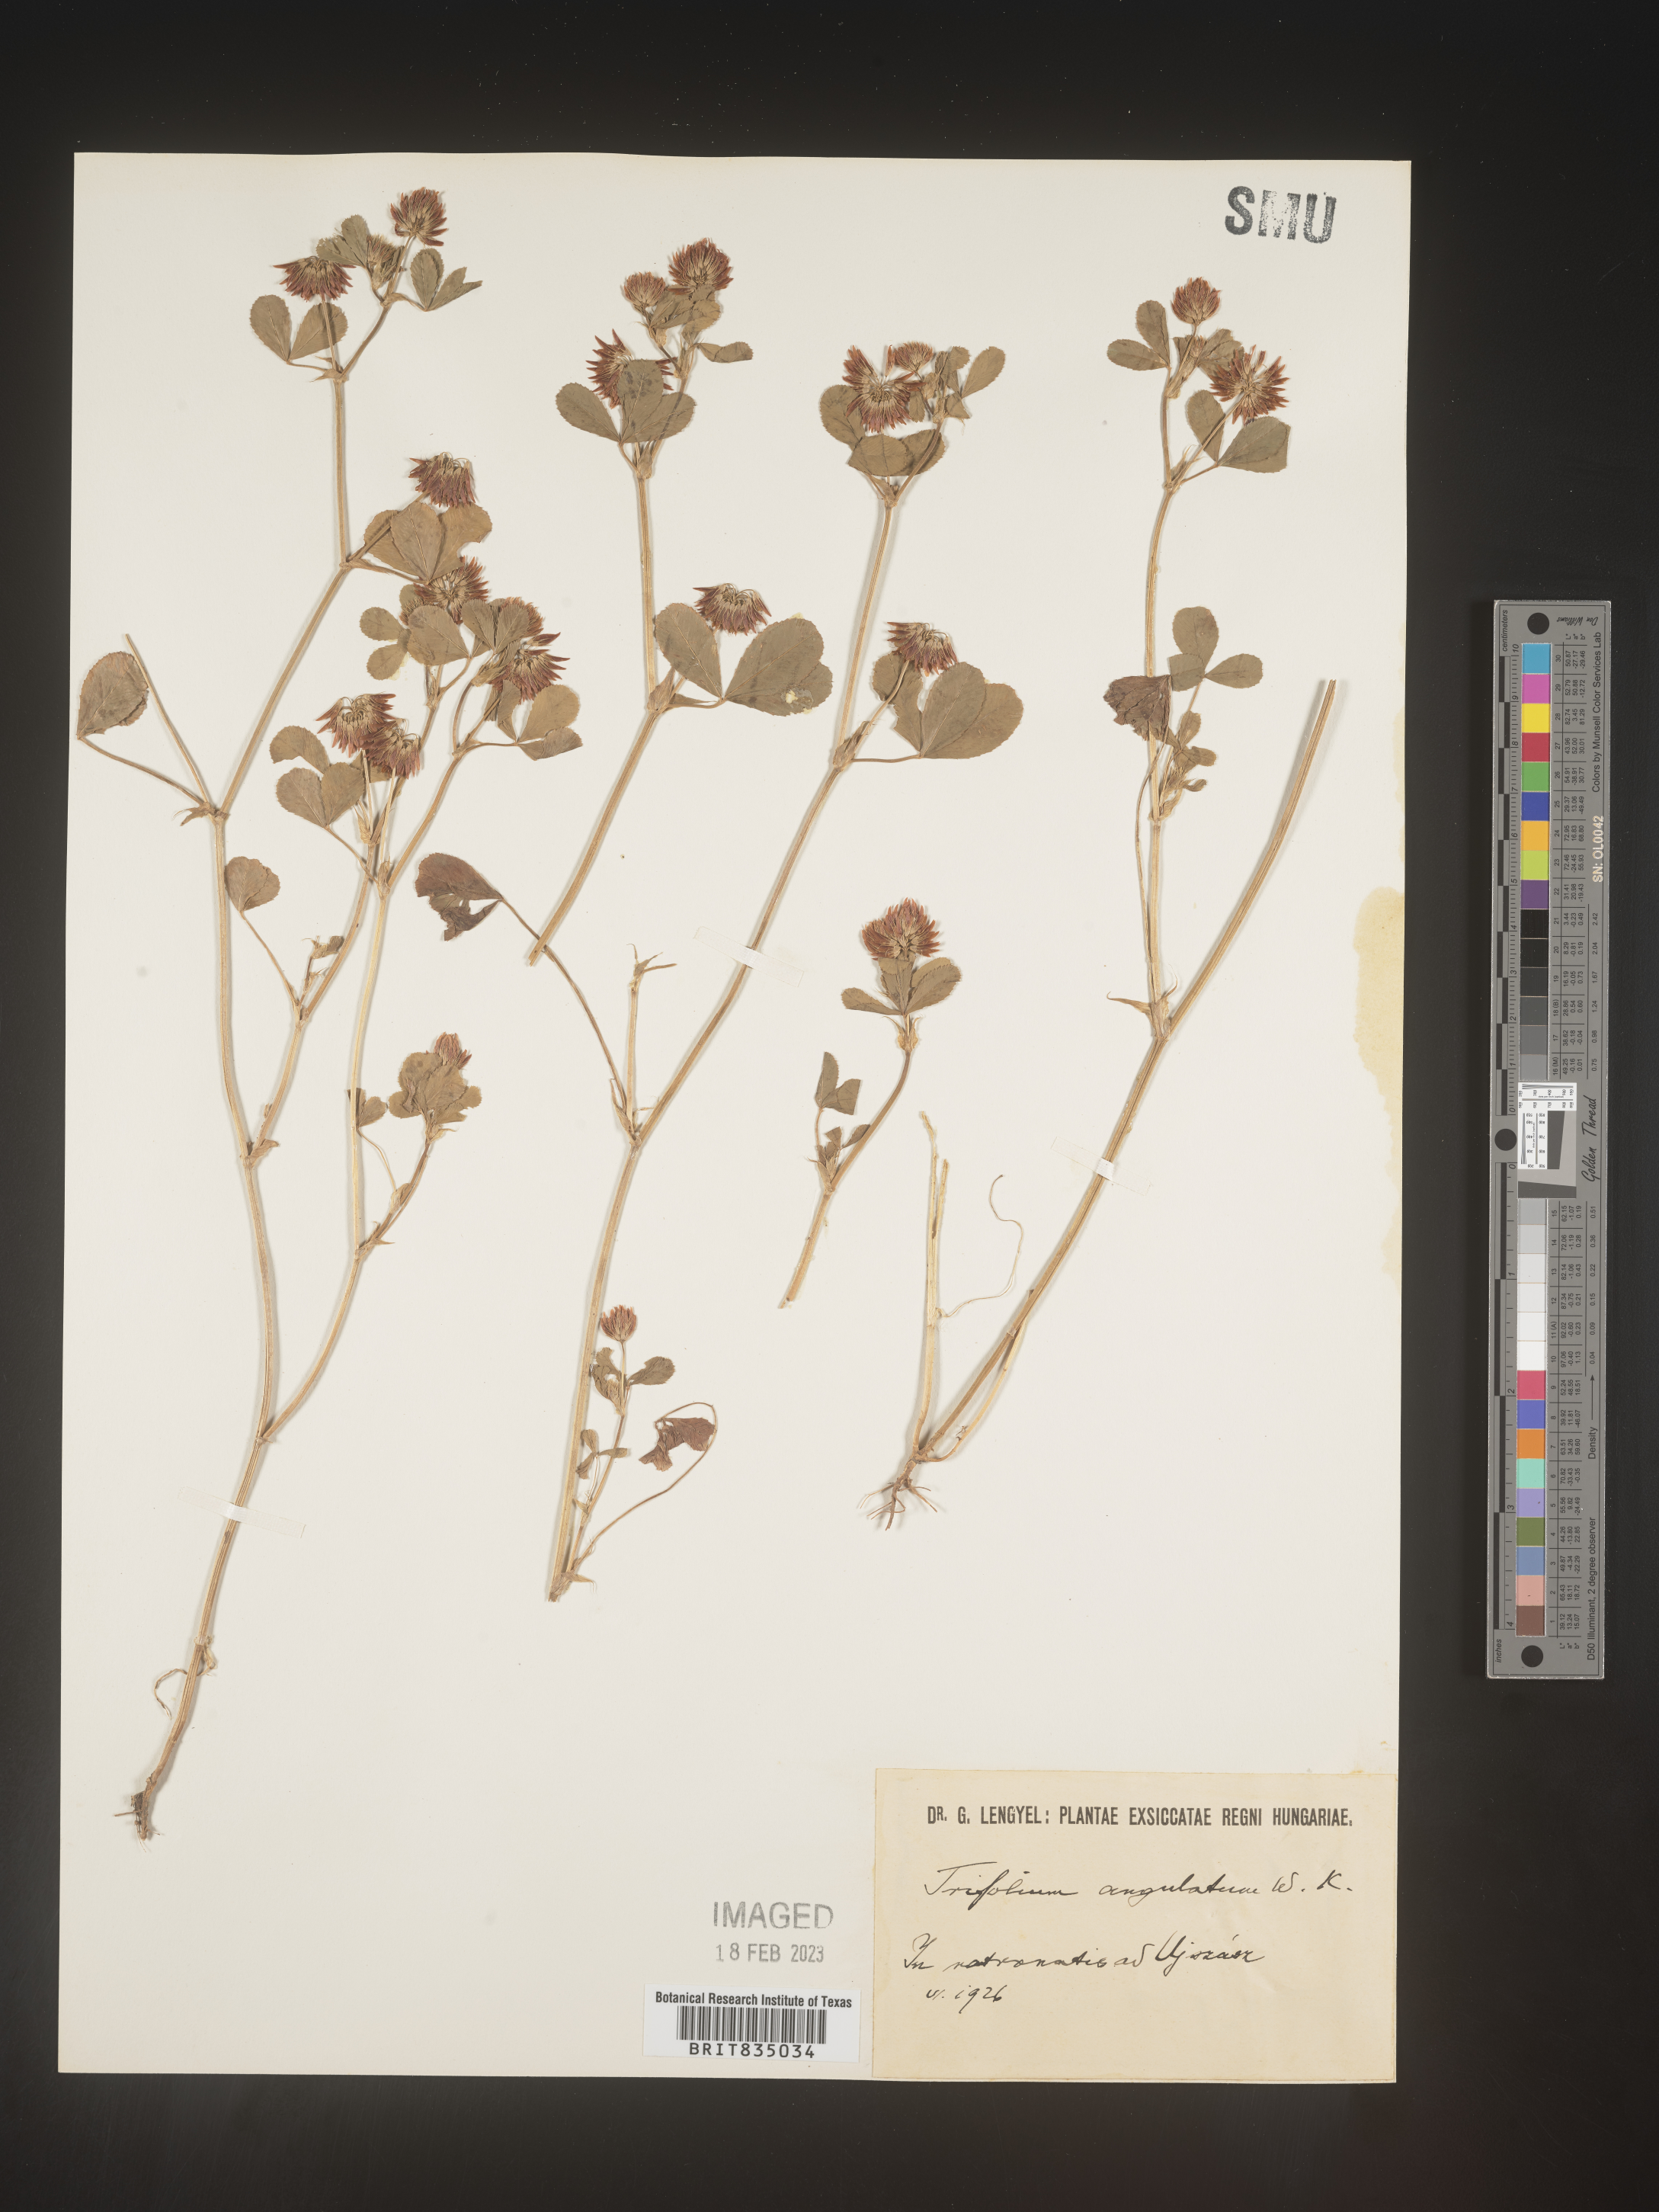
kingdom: Plantae
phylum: Tracheophyta
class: Magnoliopsida
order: Fabales
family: Fabaceae
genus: Trifolium
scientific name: Trifolium
